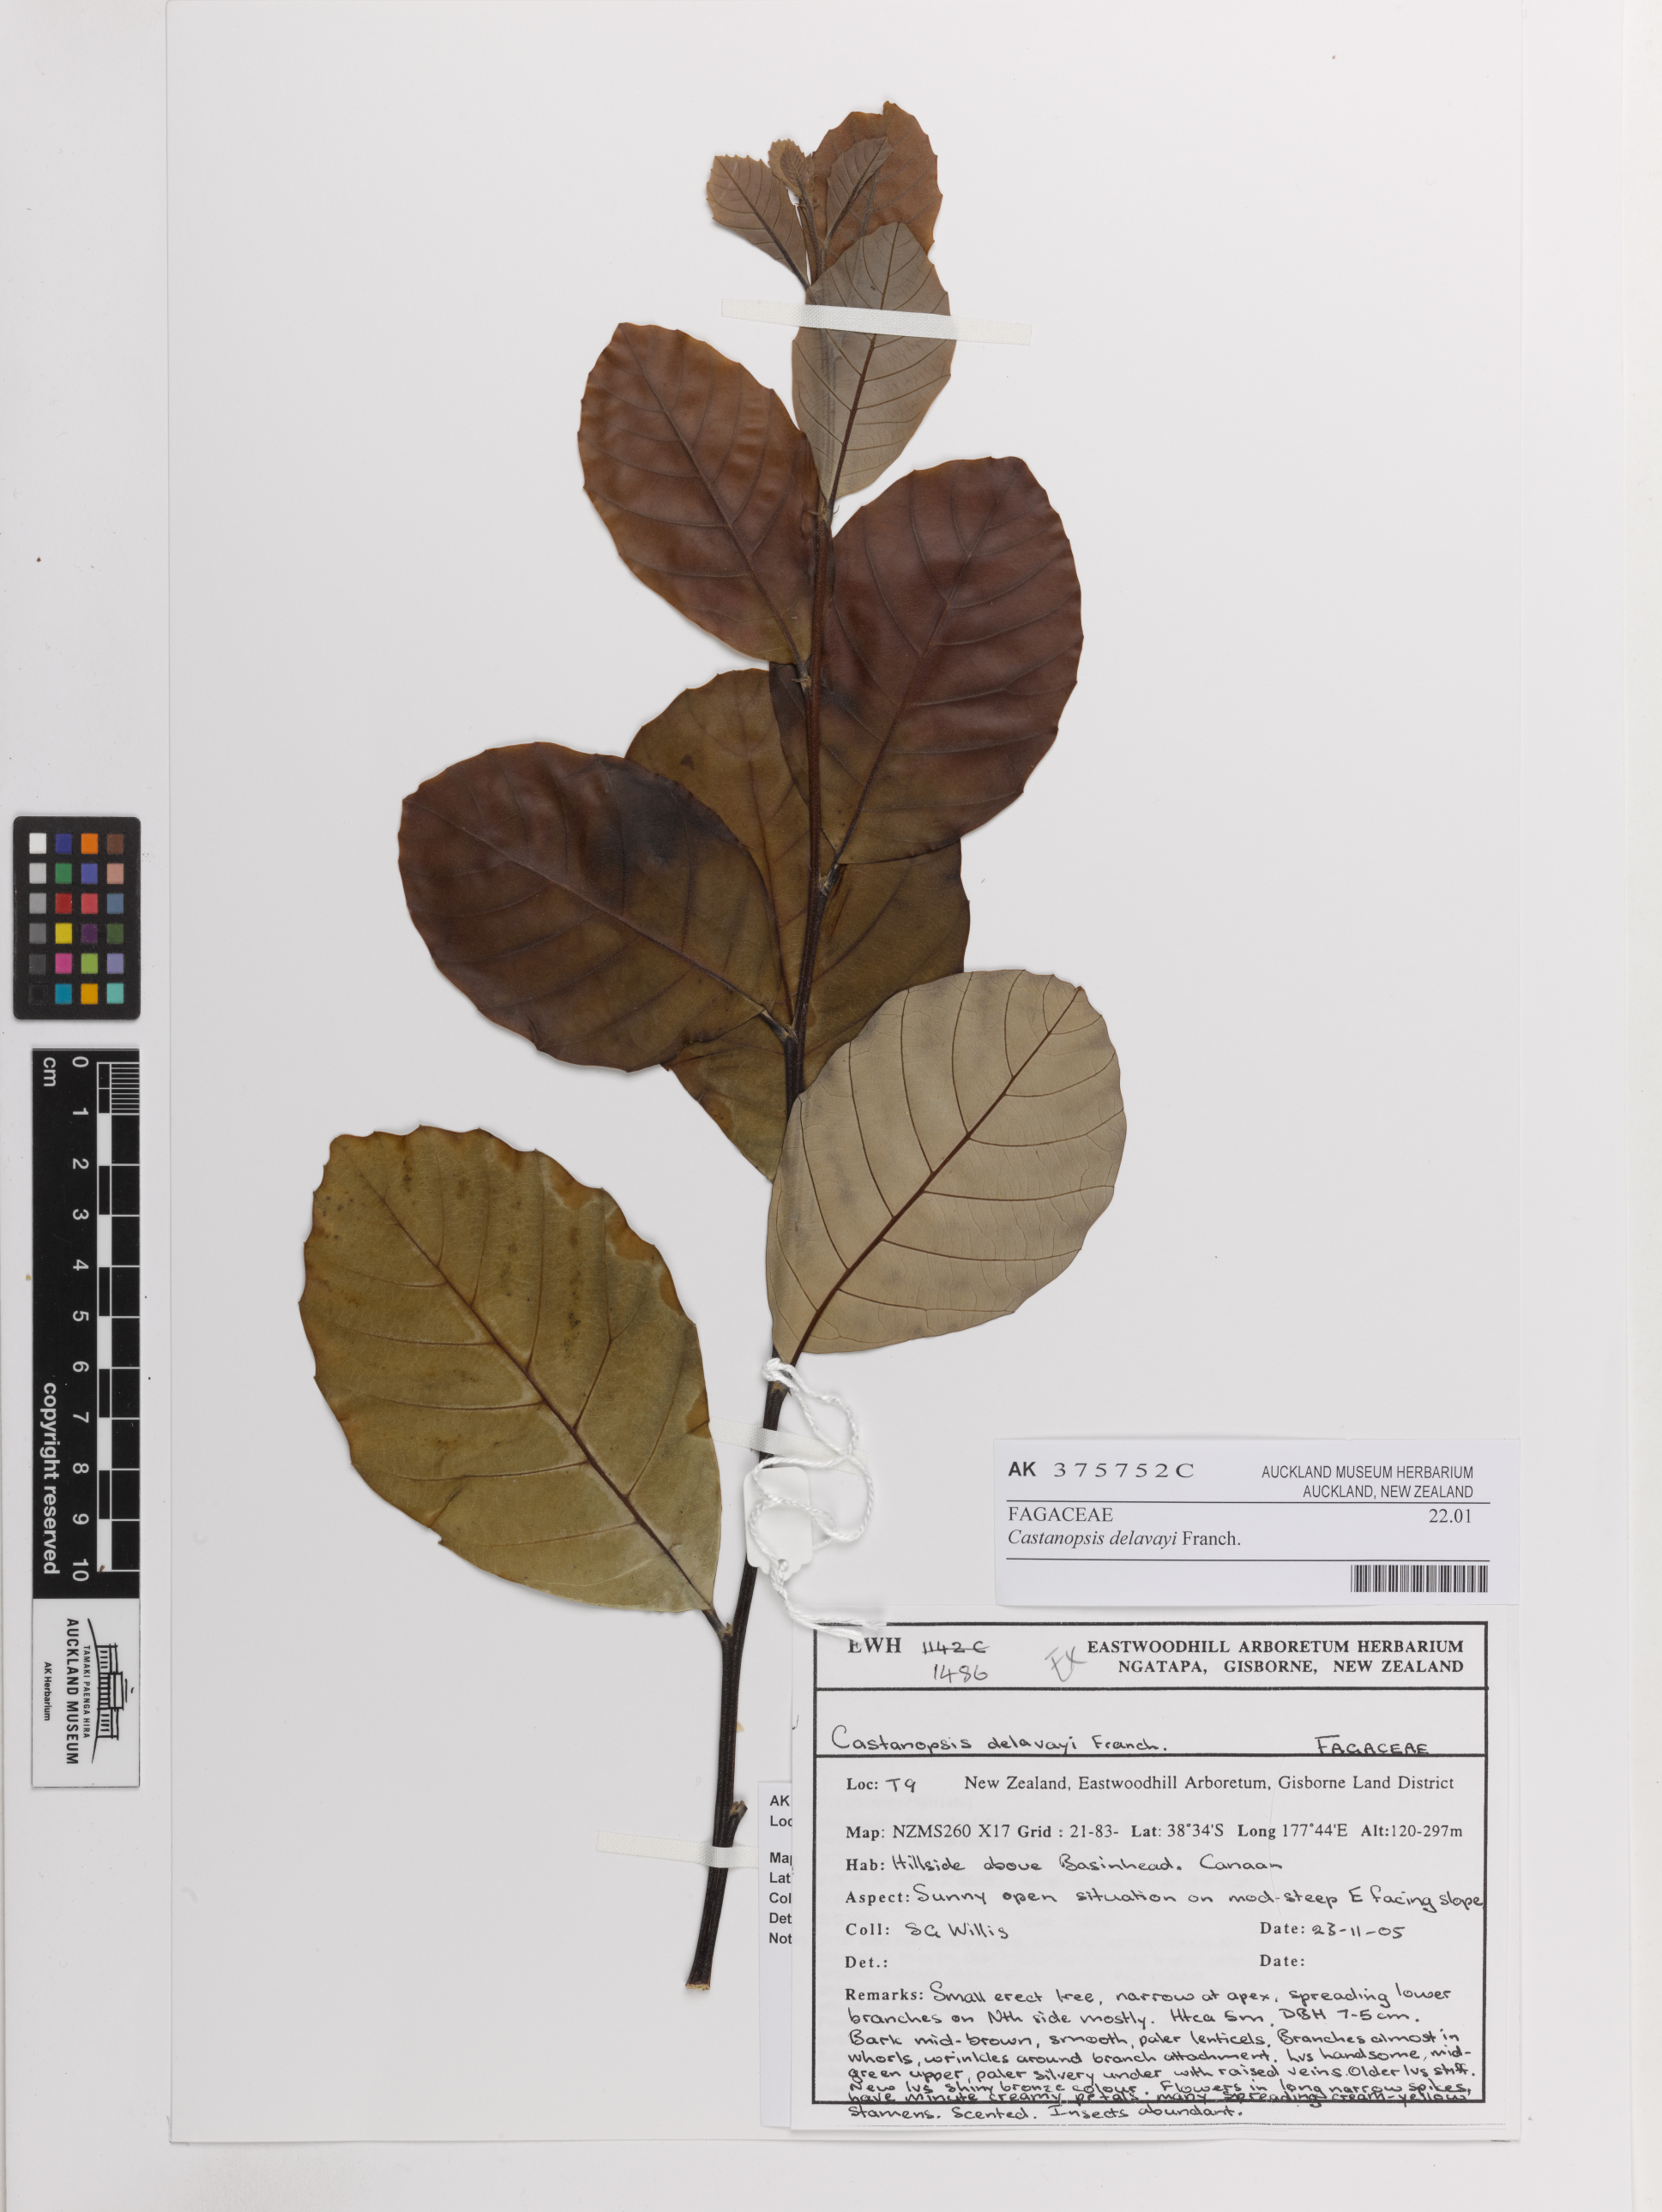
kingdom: Plantae
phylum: Tracheophyta
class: Magnoliopsida
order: Fagales
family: Fagaceae
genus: Castanopsis
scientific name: Castanopsis delavayi
